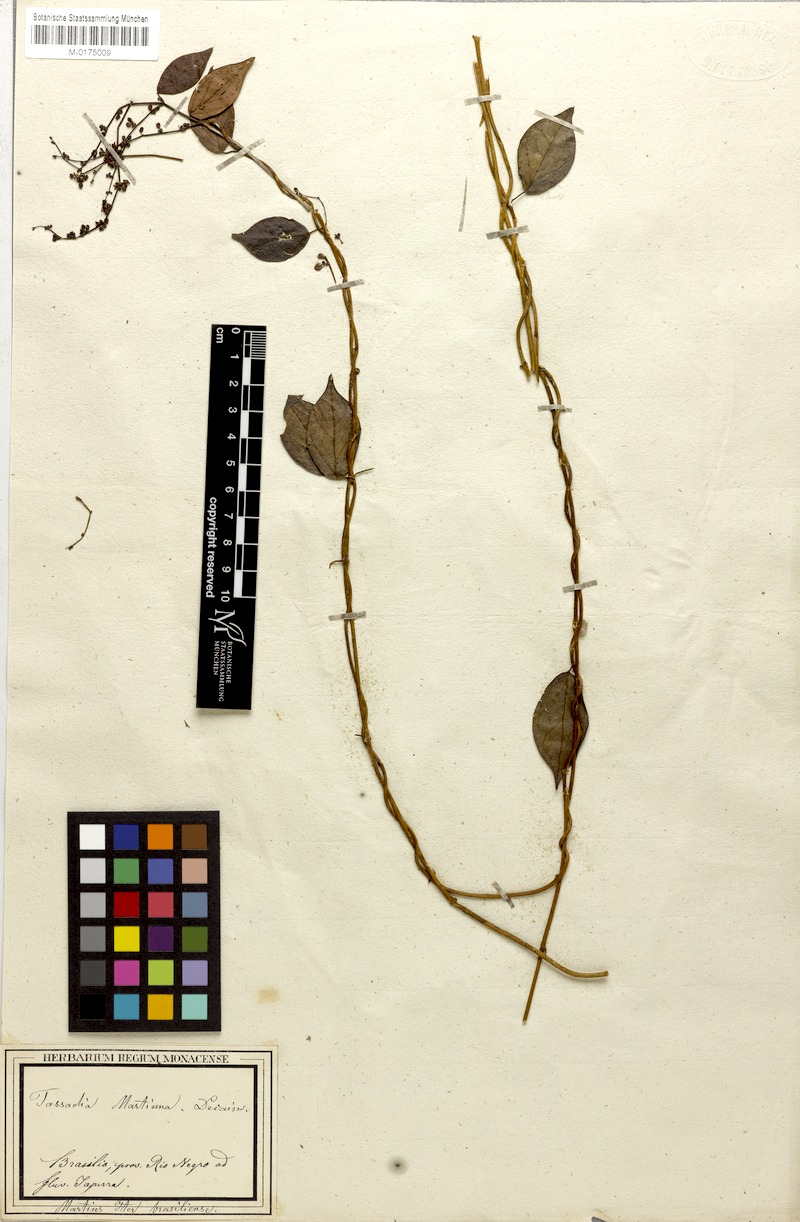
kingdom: Plantae
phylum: Tracheophyta
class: Magnoliopsida
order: Gentianales
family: Apocynaceae
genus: Tassadia
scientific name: Tassadia martiana
